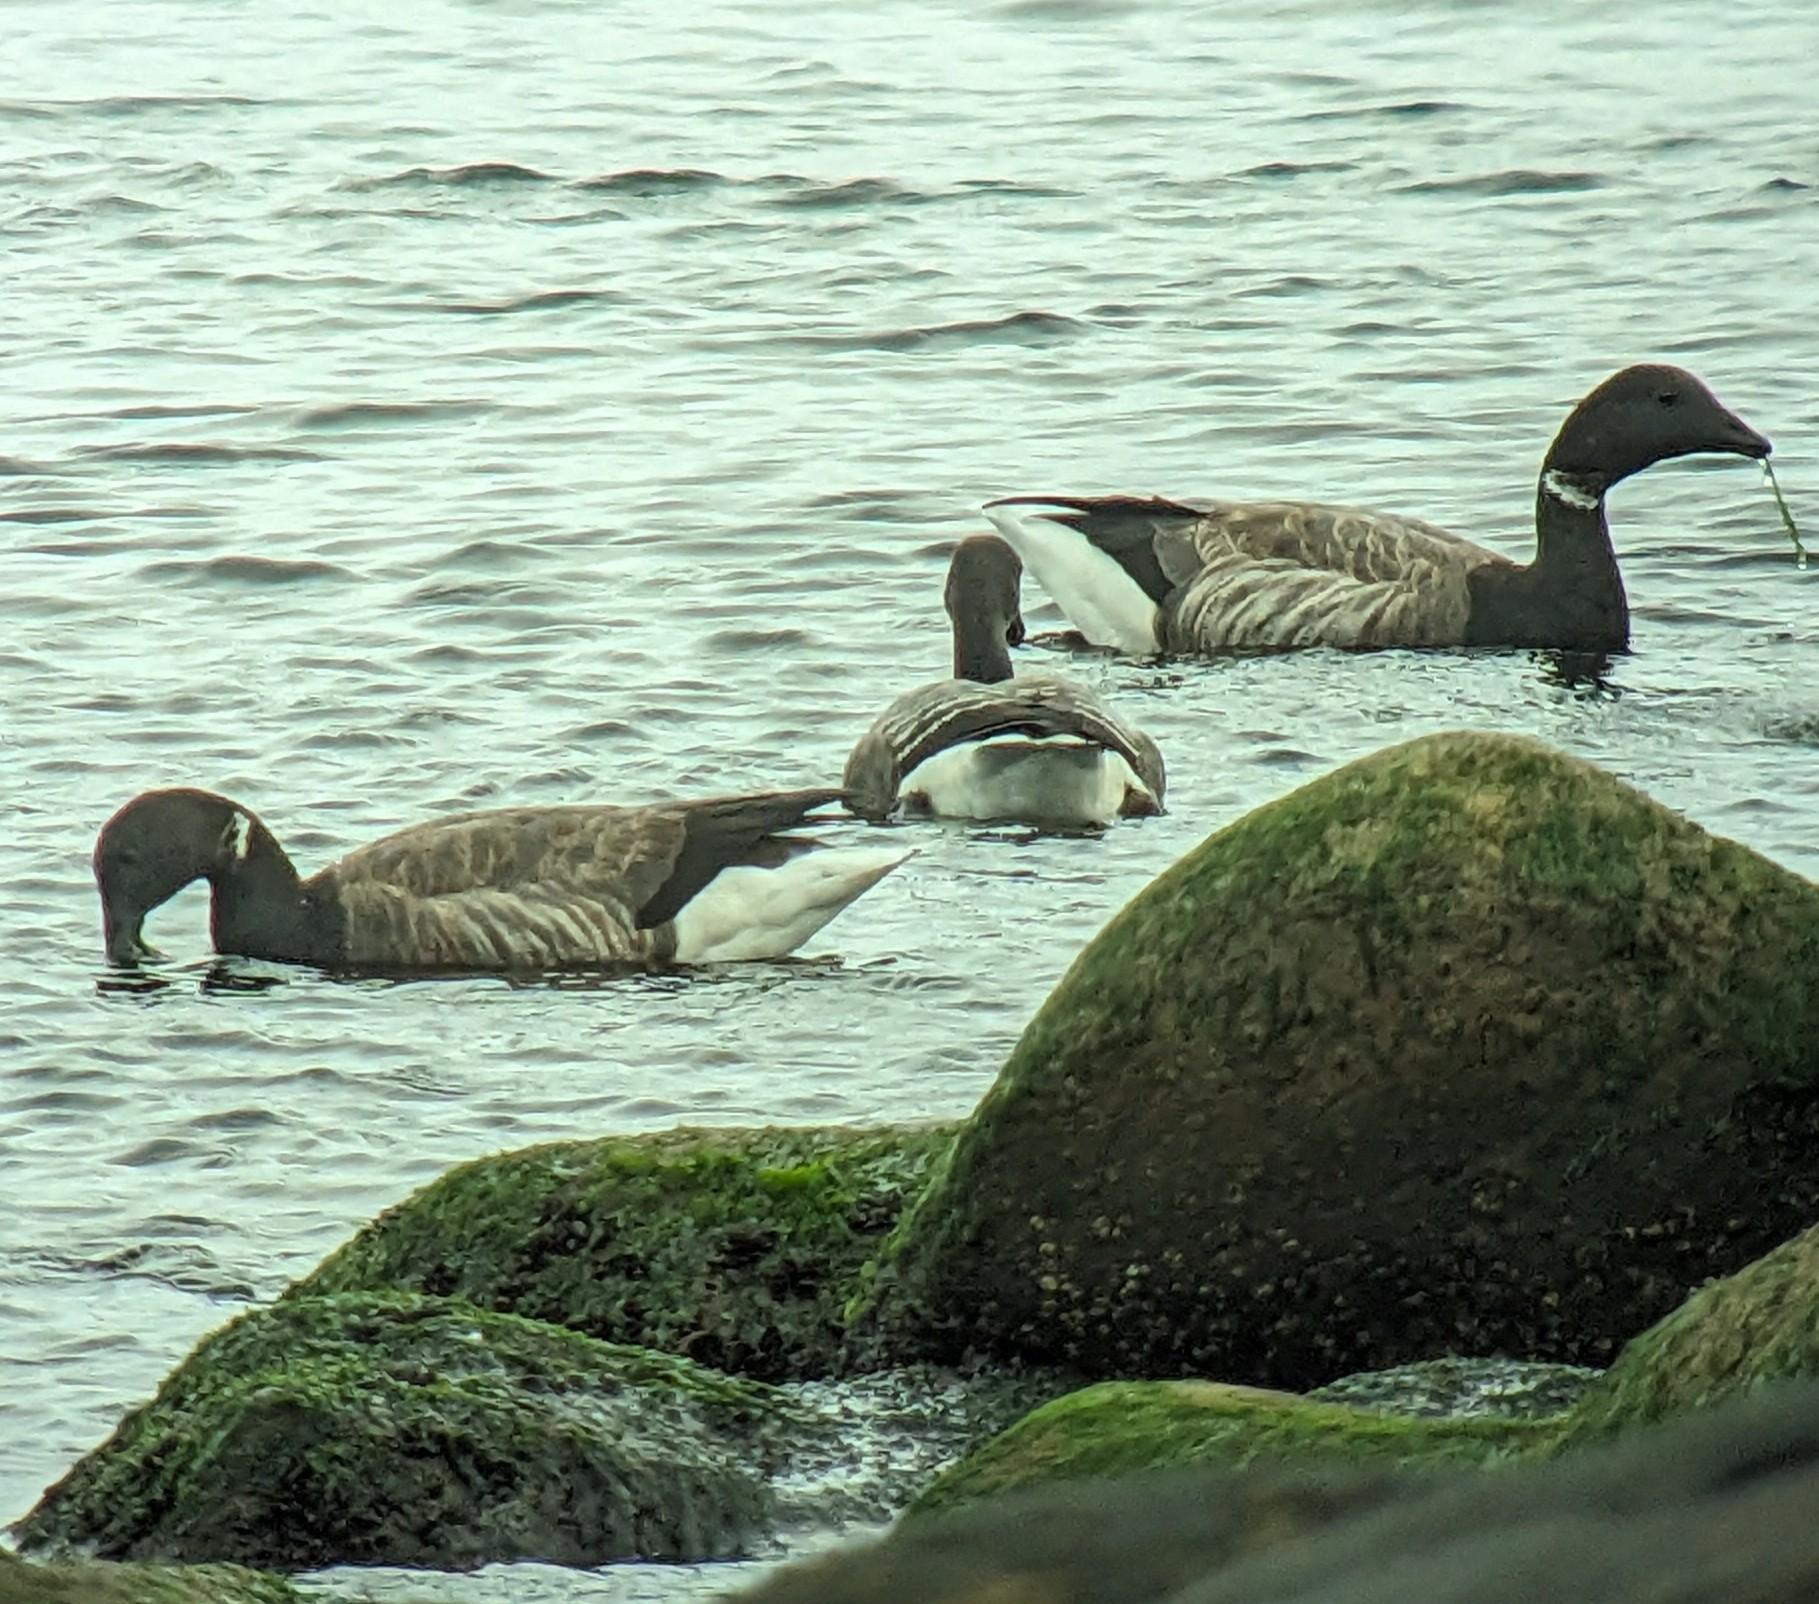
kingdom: Animalia
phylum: Chordata
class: Aves
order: Anseriformes
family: Anatidae
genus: Branta
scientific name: Branta bernicla
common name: Knortegås
